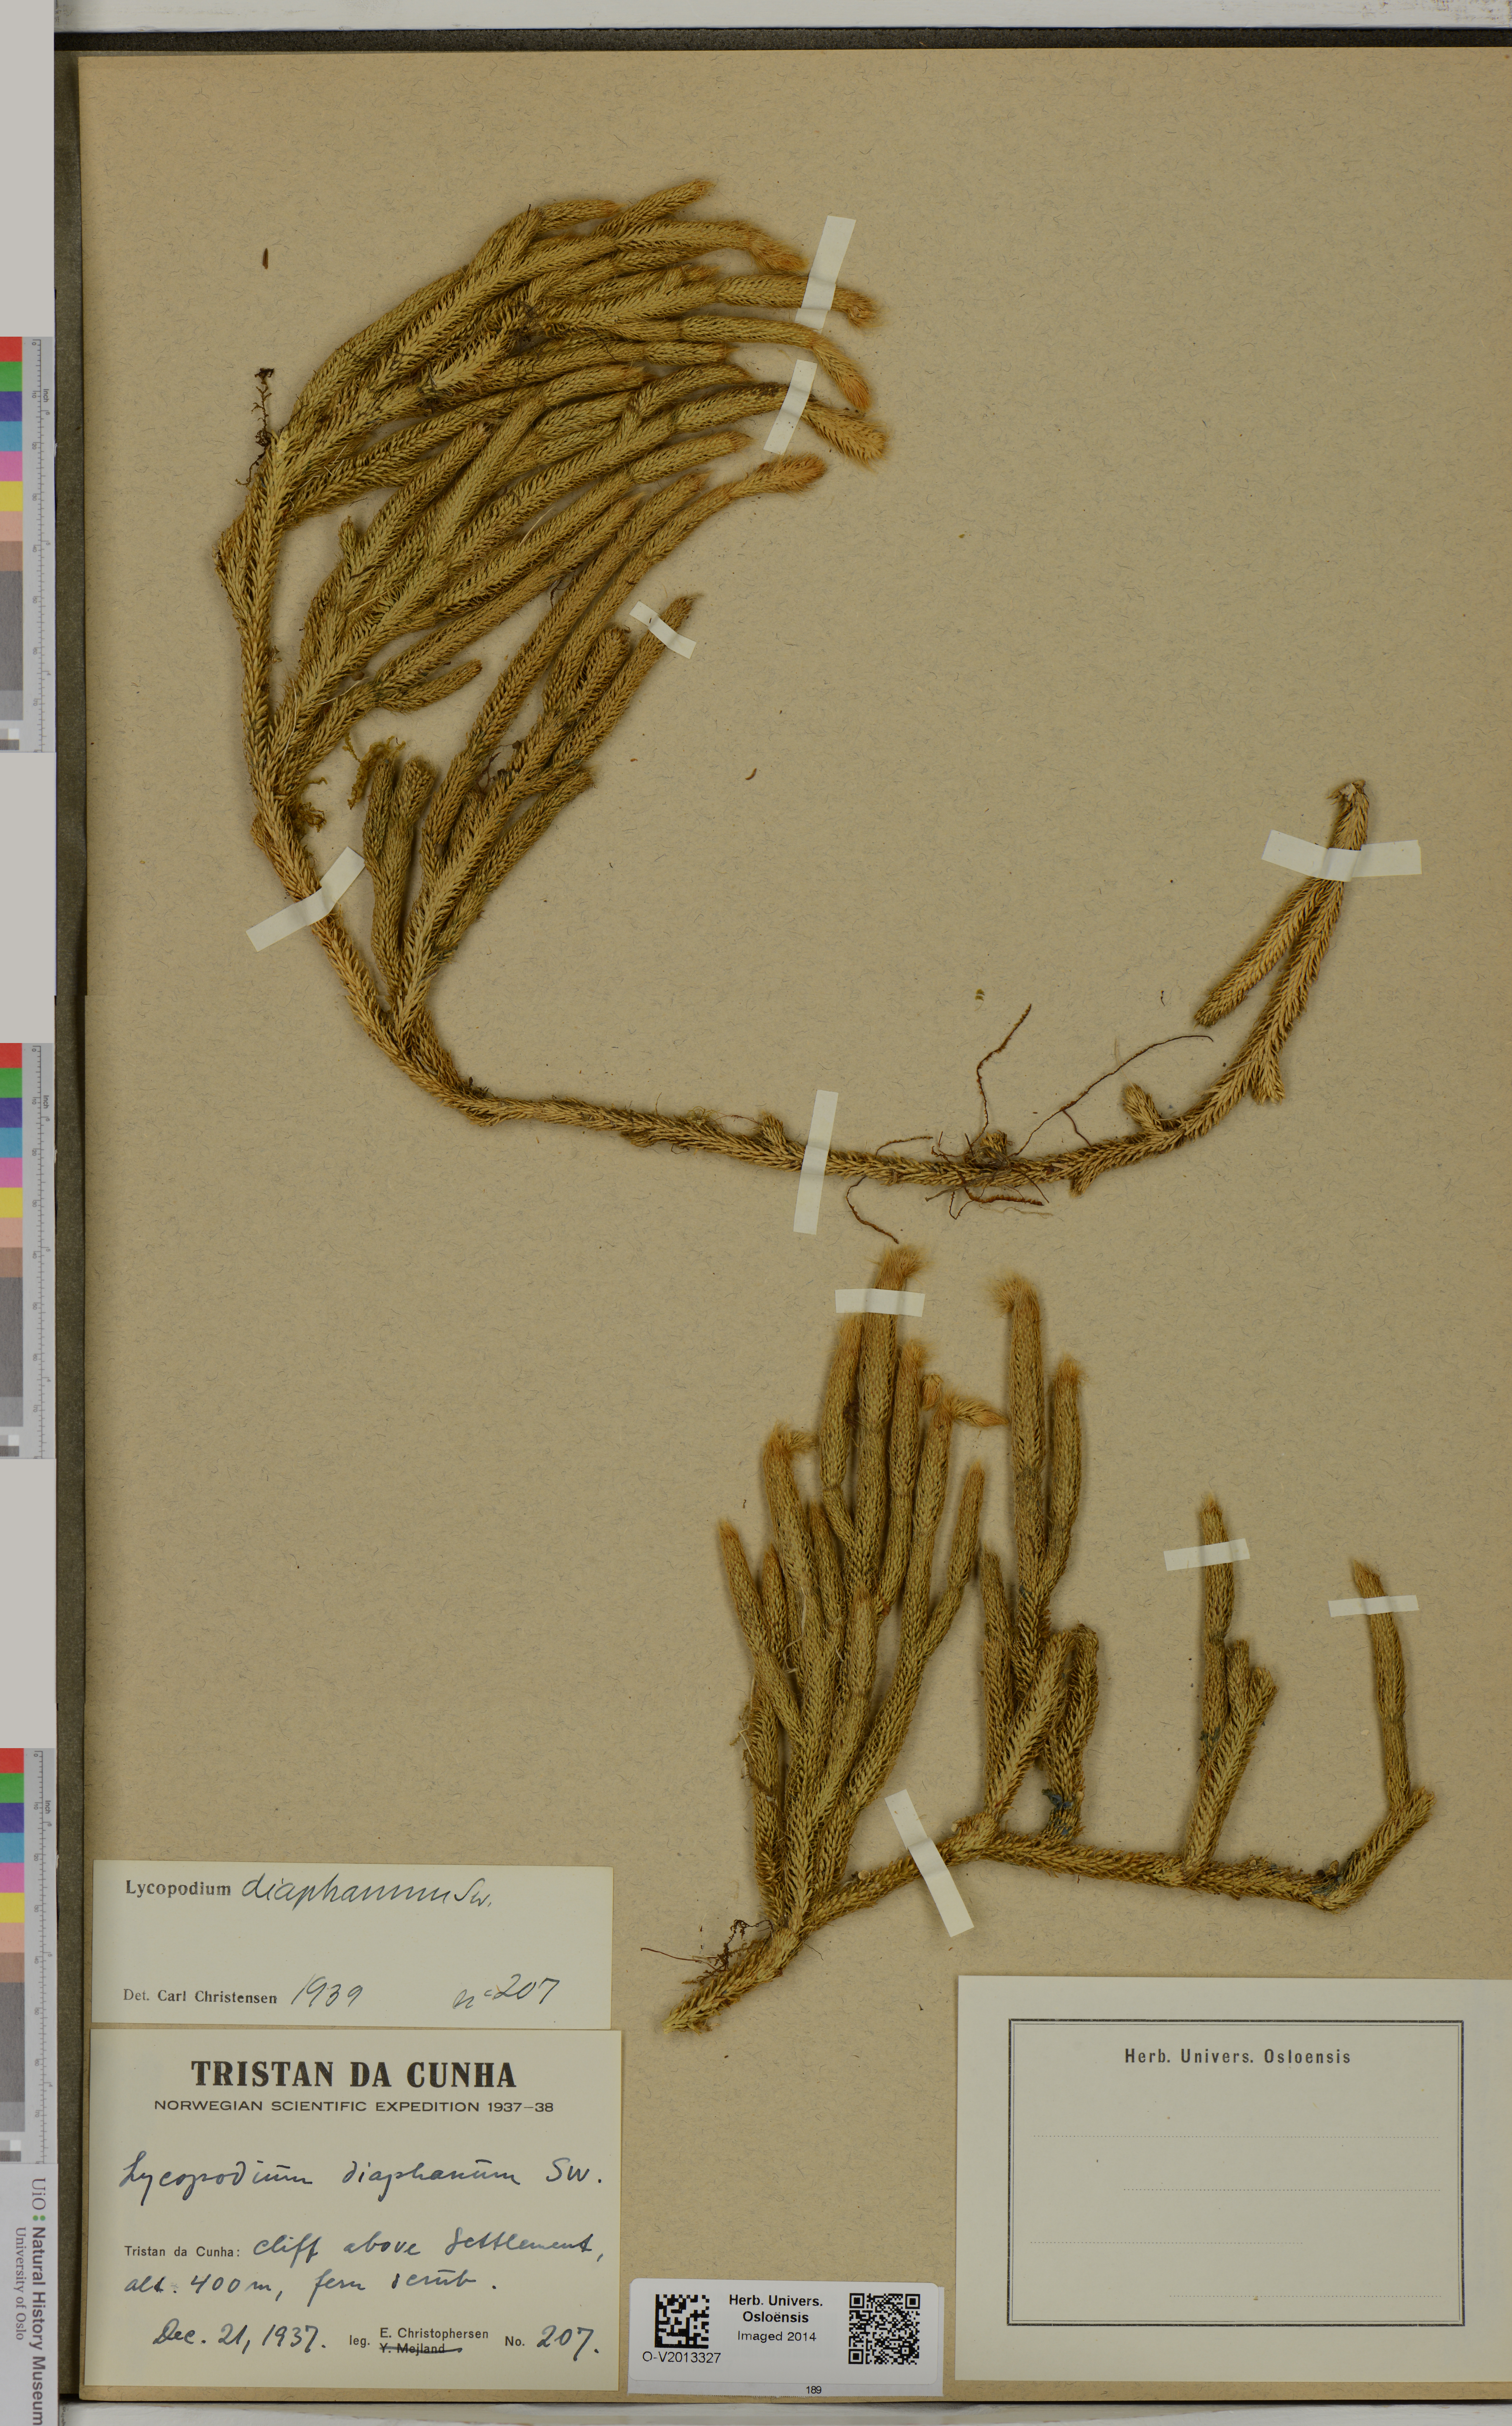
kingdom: Plantae
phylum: Tracheophyta
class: Lycopodiopsida
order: Lycopodiales
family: Lycopodiaceae
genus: Lycopodium
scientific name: Lycopodium diaphanum
